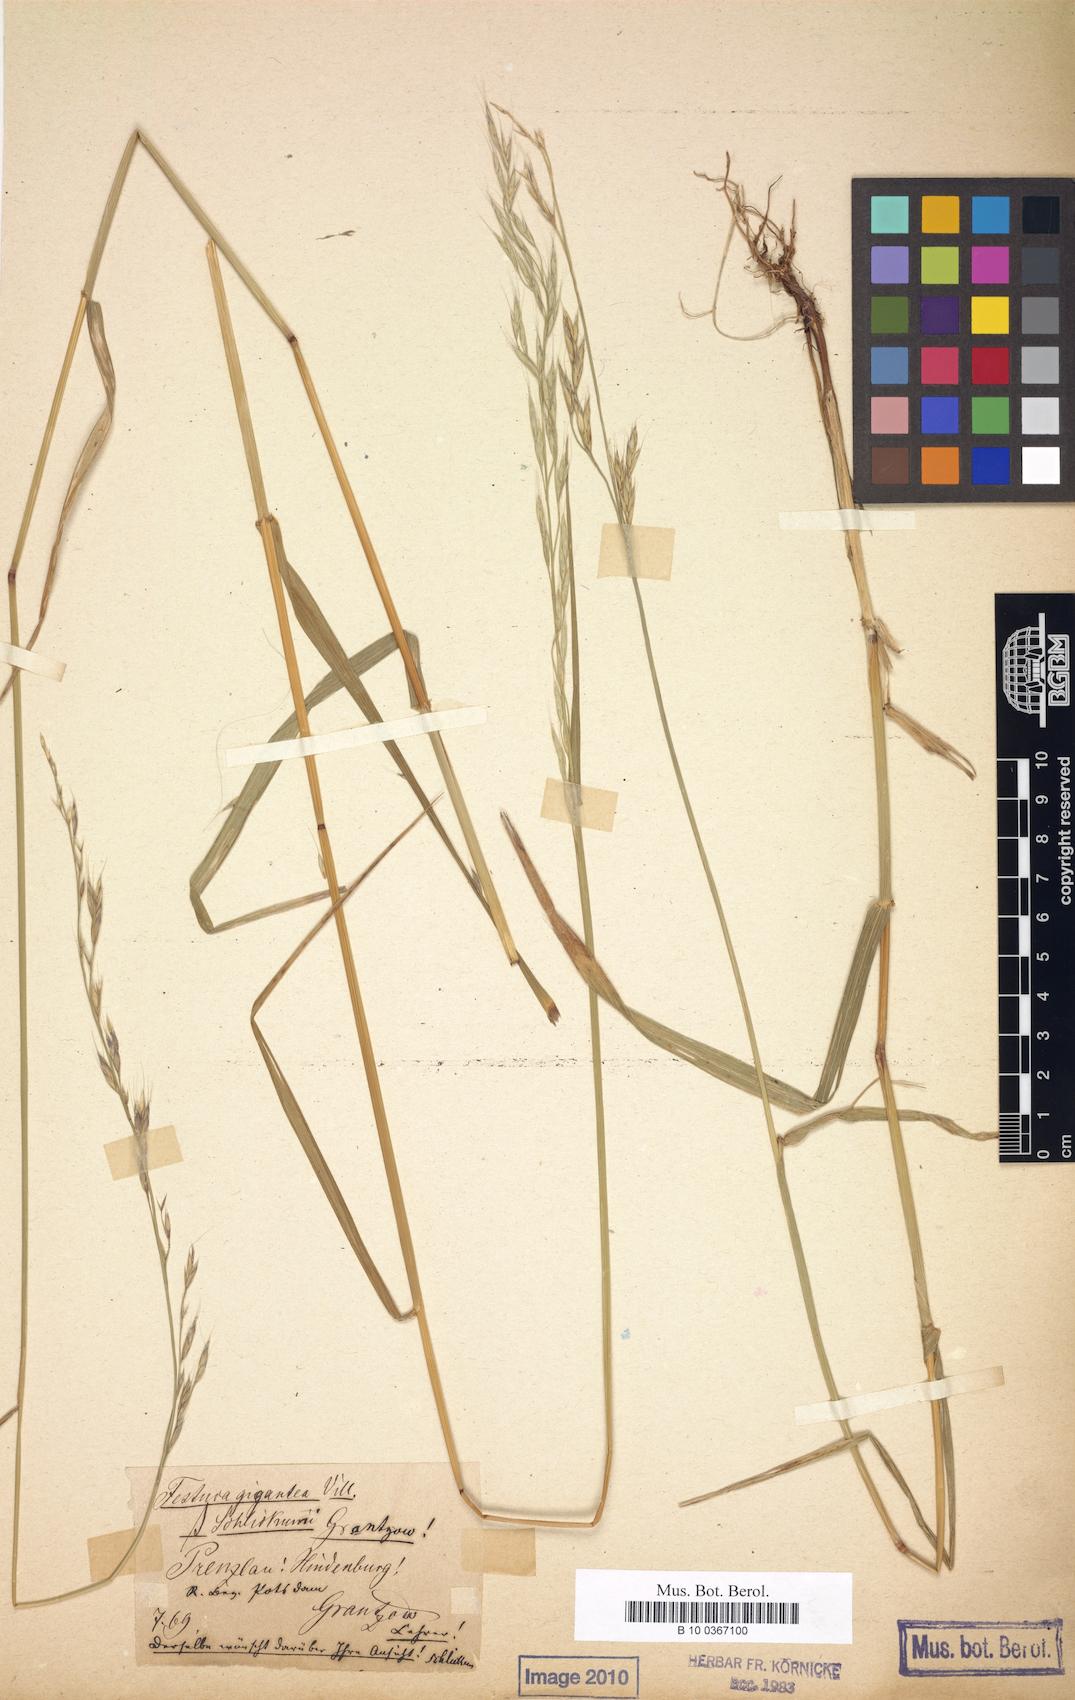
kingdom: Plantae
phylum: Tracheophyta
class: Liliopsida
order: Poales
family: Poaceae
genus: Lolium
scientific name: Lolium schlickumii
